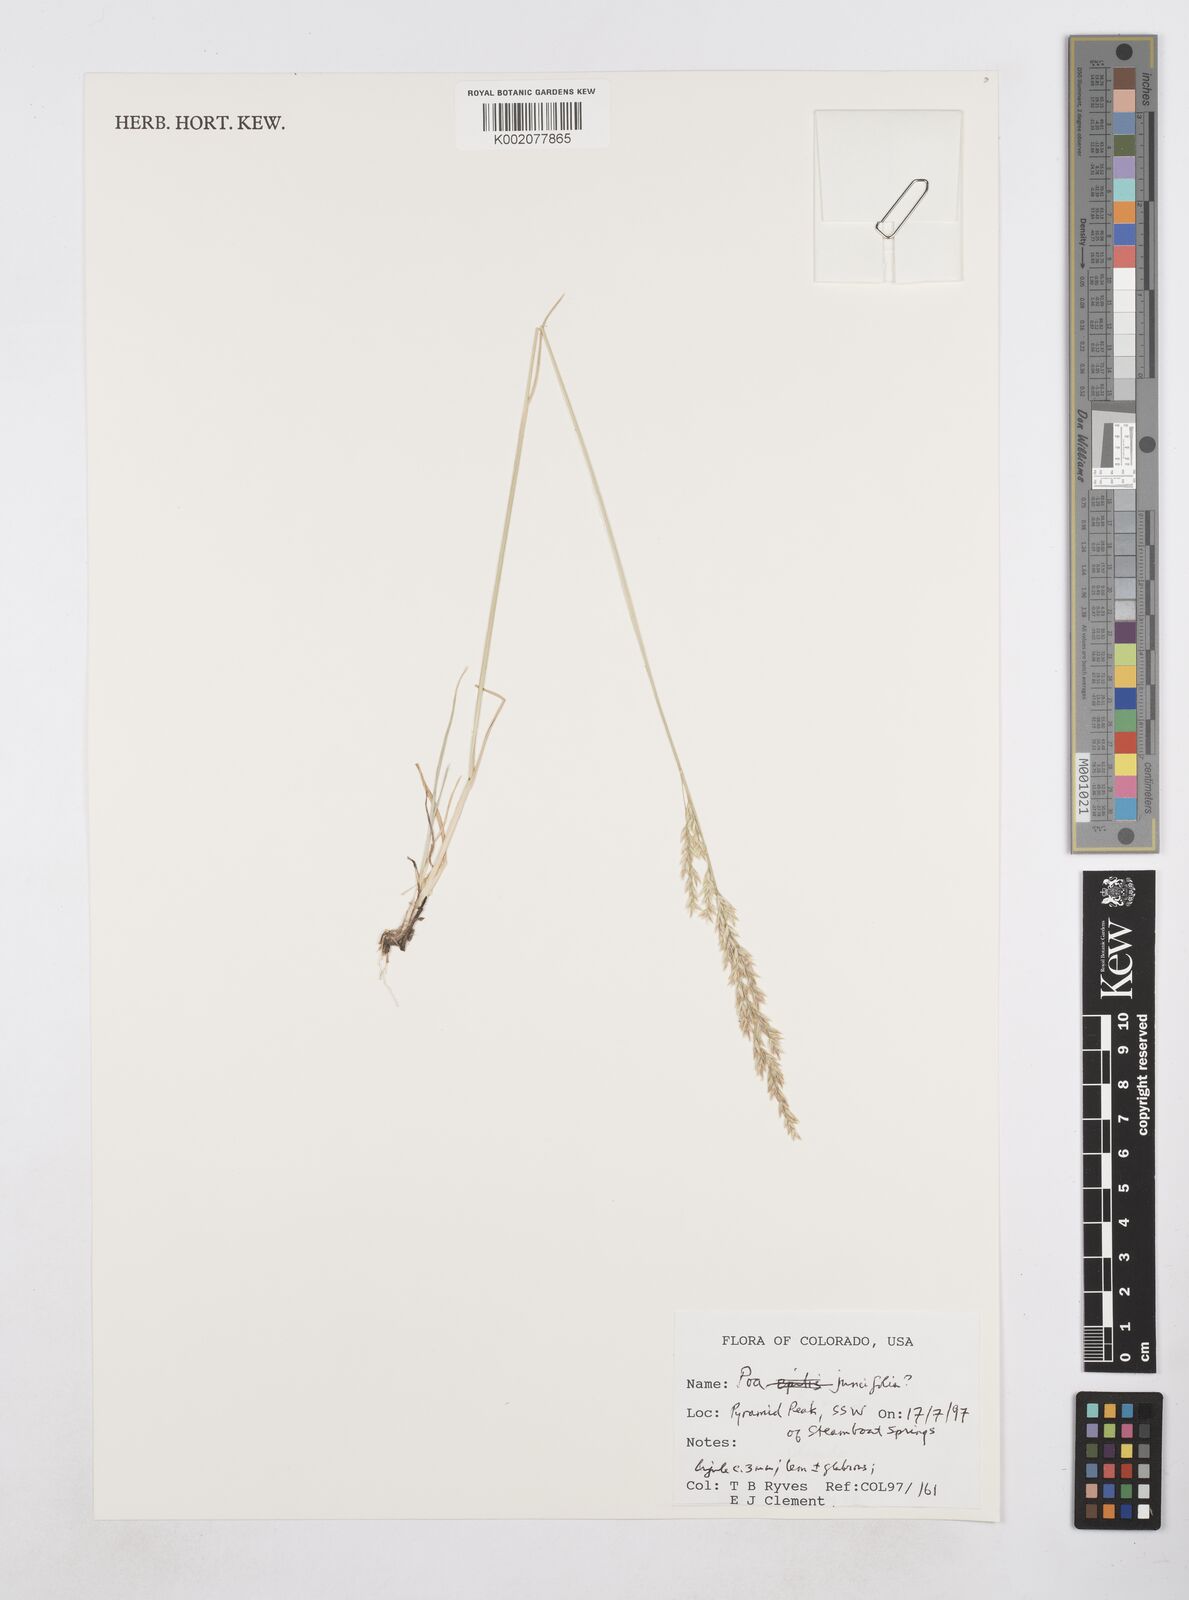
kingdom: Plantae
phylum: Tracheophyta
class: Liliopsida
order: Poales
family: Poaceae
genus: Poa
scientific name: Poa secunda
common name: Sandberg bluegrass
